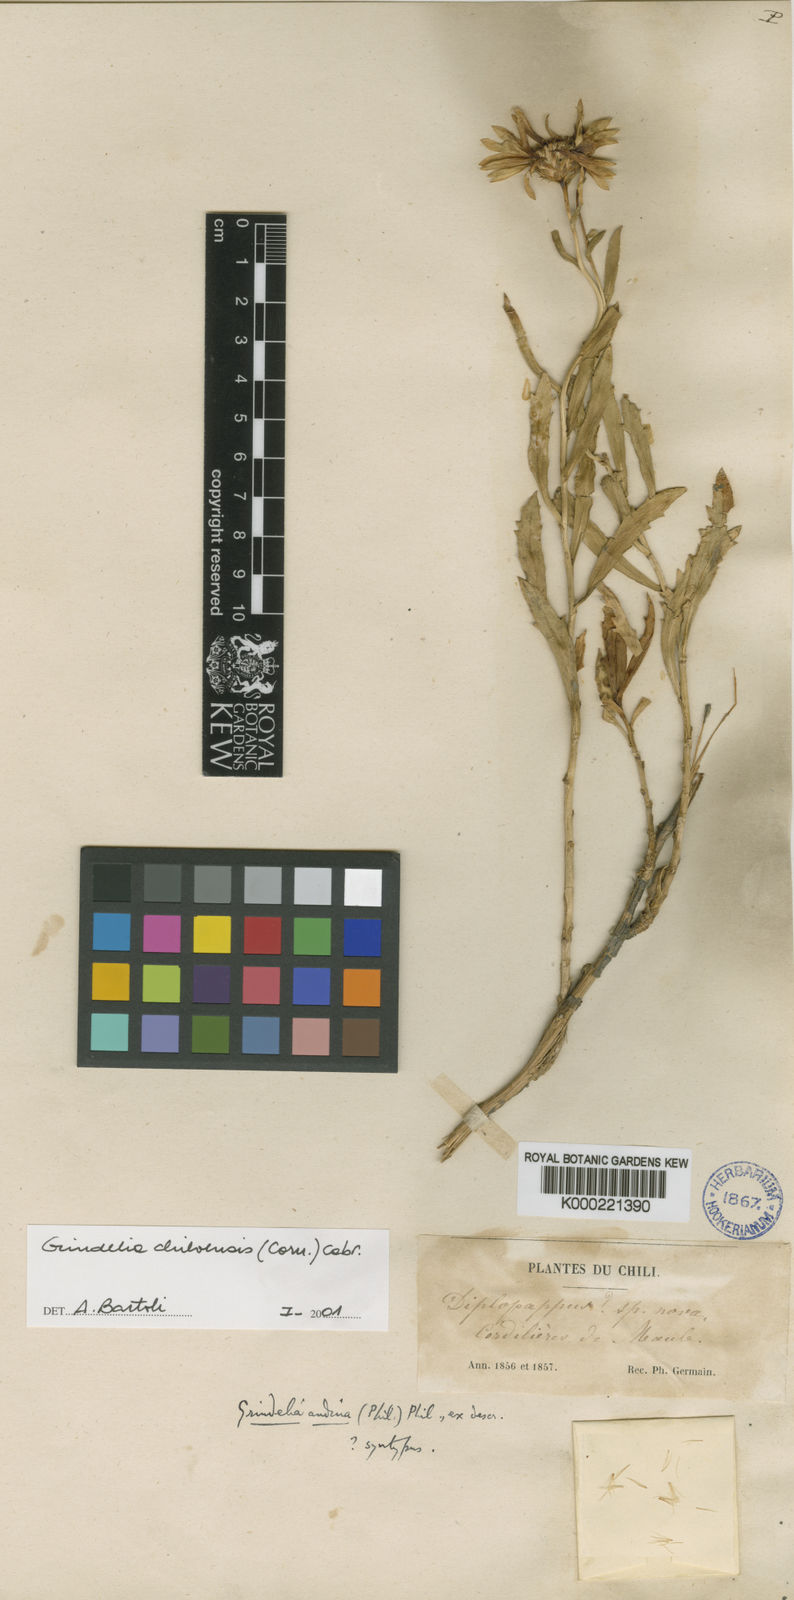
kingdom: Plantae
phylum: Tracheophyta
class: Magnoliopsida
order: Asterales
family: Asteraceae
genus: Grindelia
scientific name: Grindelia chiloensis
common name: Shrubby gumweed
